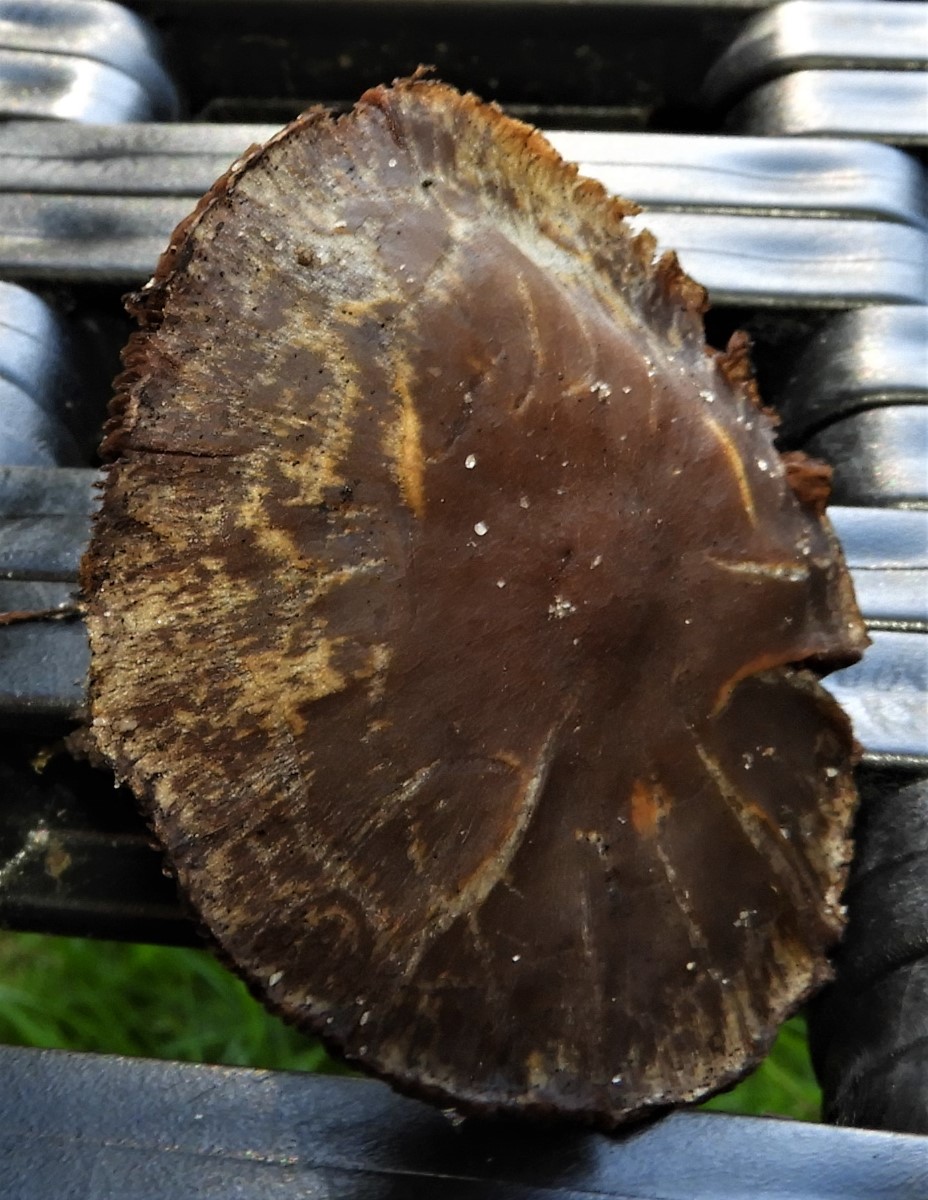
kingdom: Fungi
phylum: Basidiomycota
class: Agaricomycetes
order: Agaricales
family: Psathyrellaceae
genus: Lacrymaria
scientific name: Lacrymaria lacrymabunda
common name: grædende mørkhat
